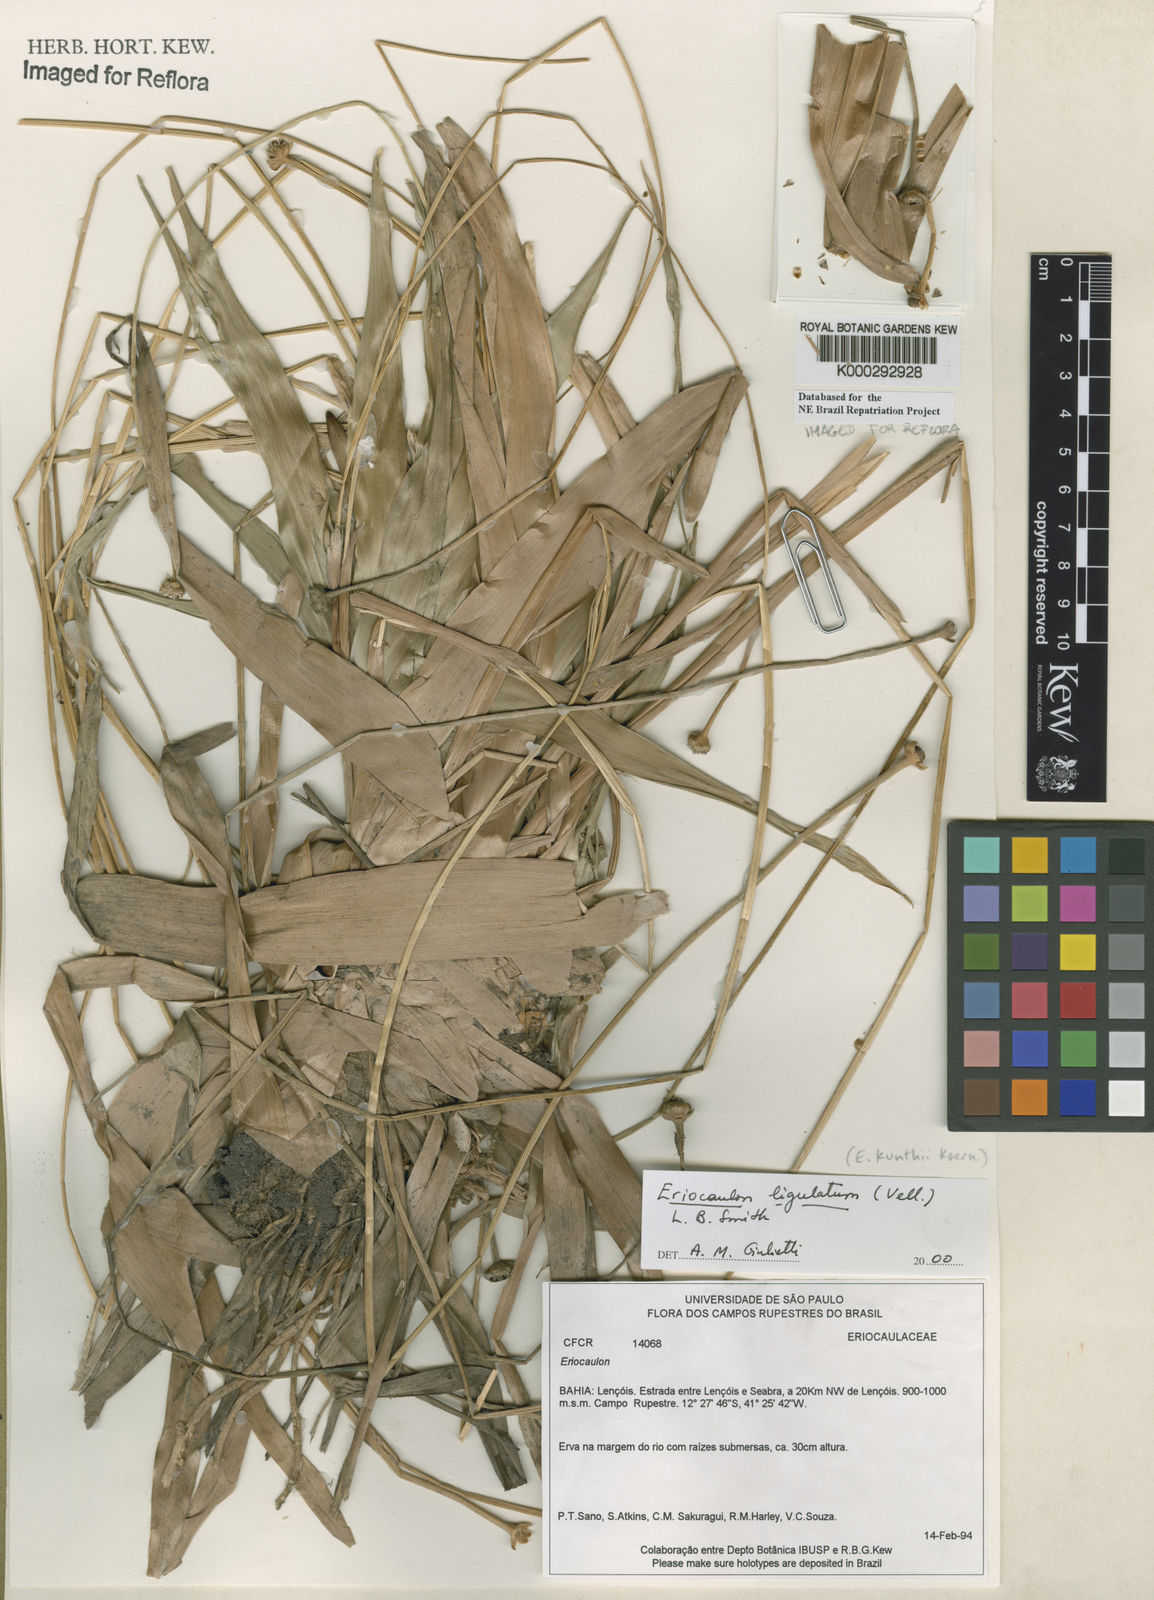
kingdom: Plantae
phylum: Tracheophyta
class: Liliopsida
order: Poales
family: Eriocaulaceae
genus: Eriocaulon
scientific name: Eriocaulon
